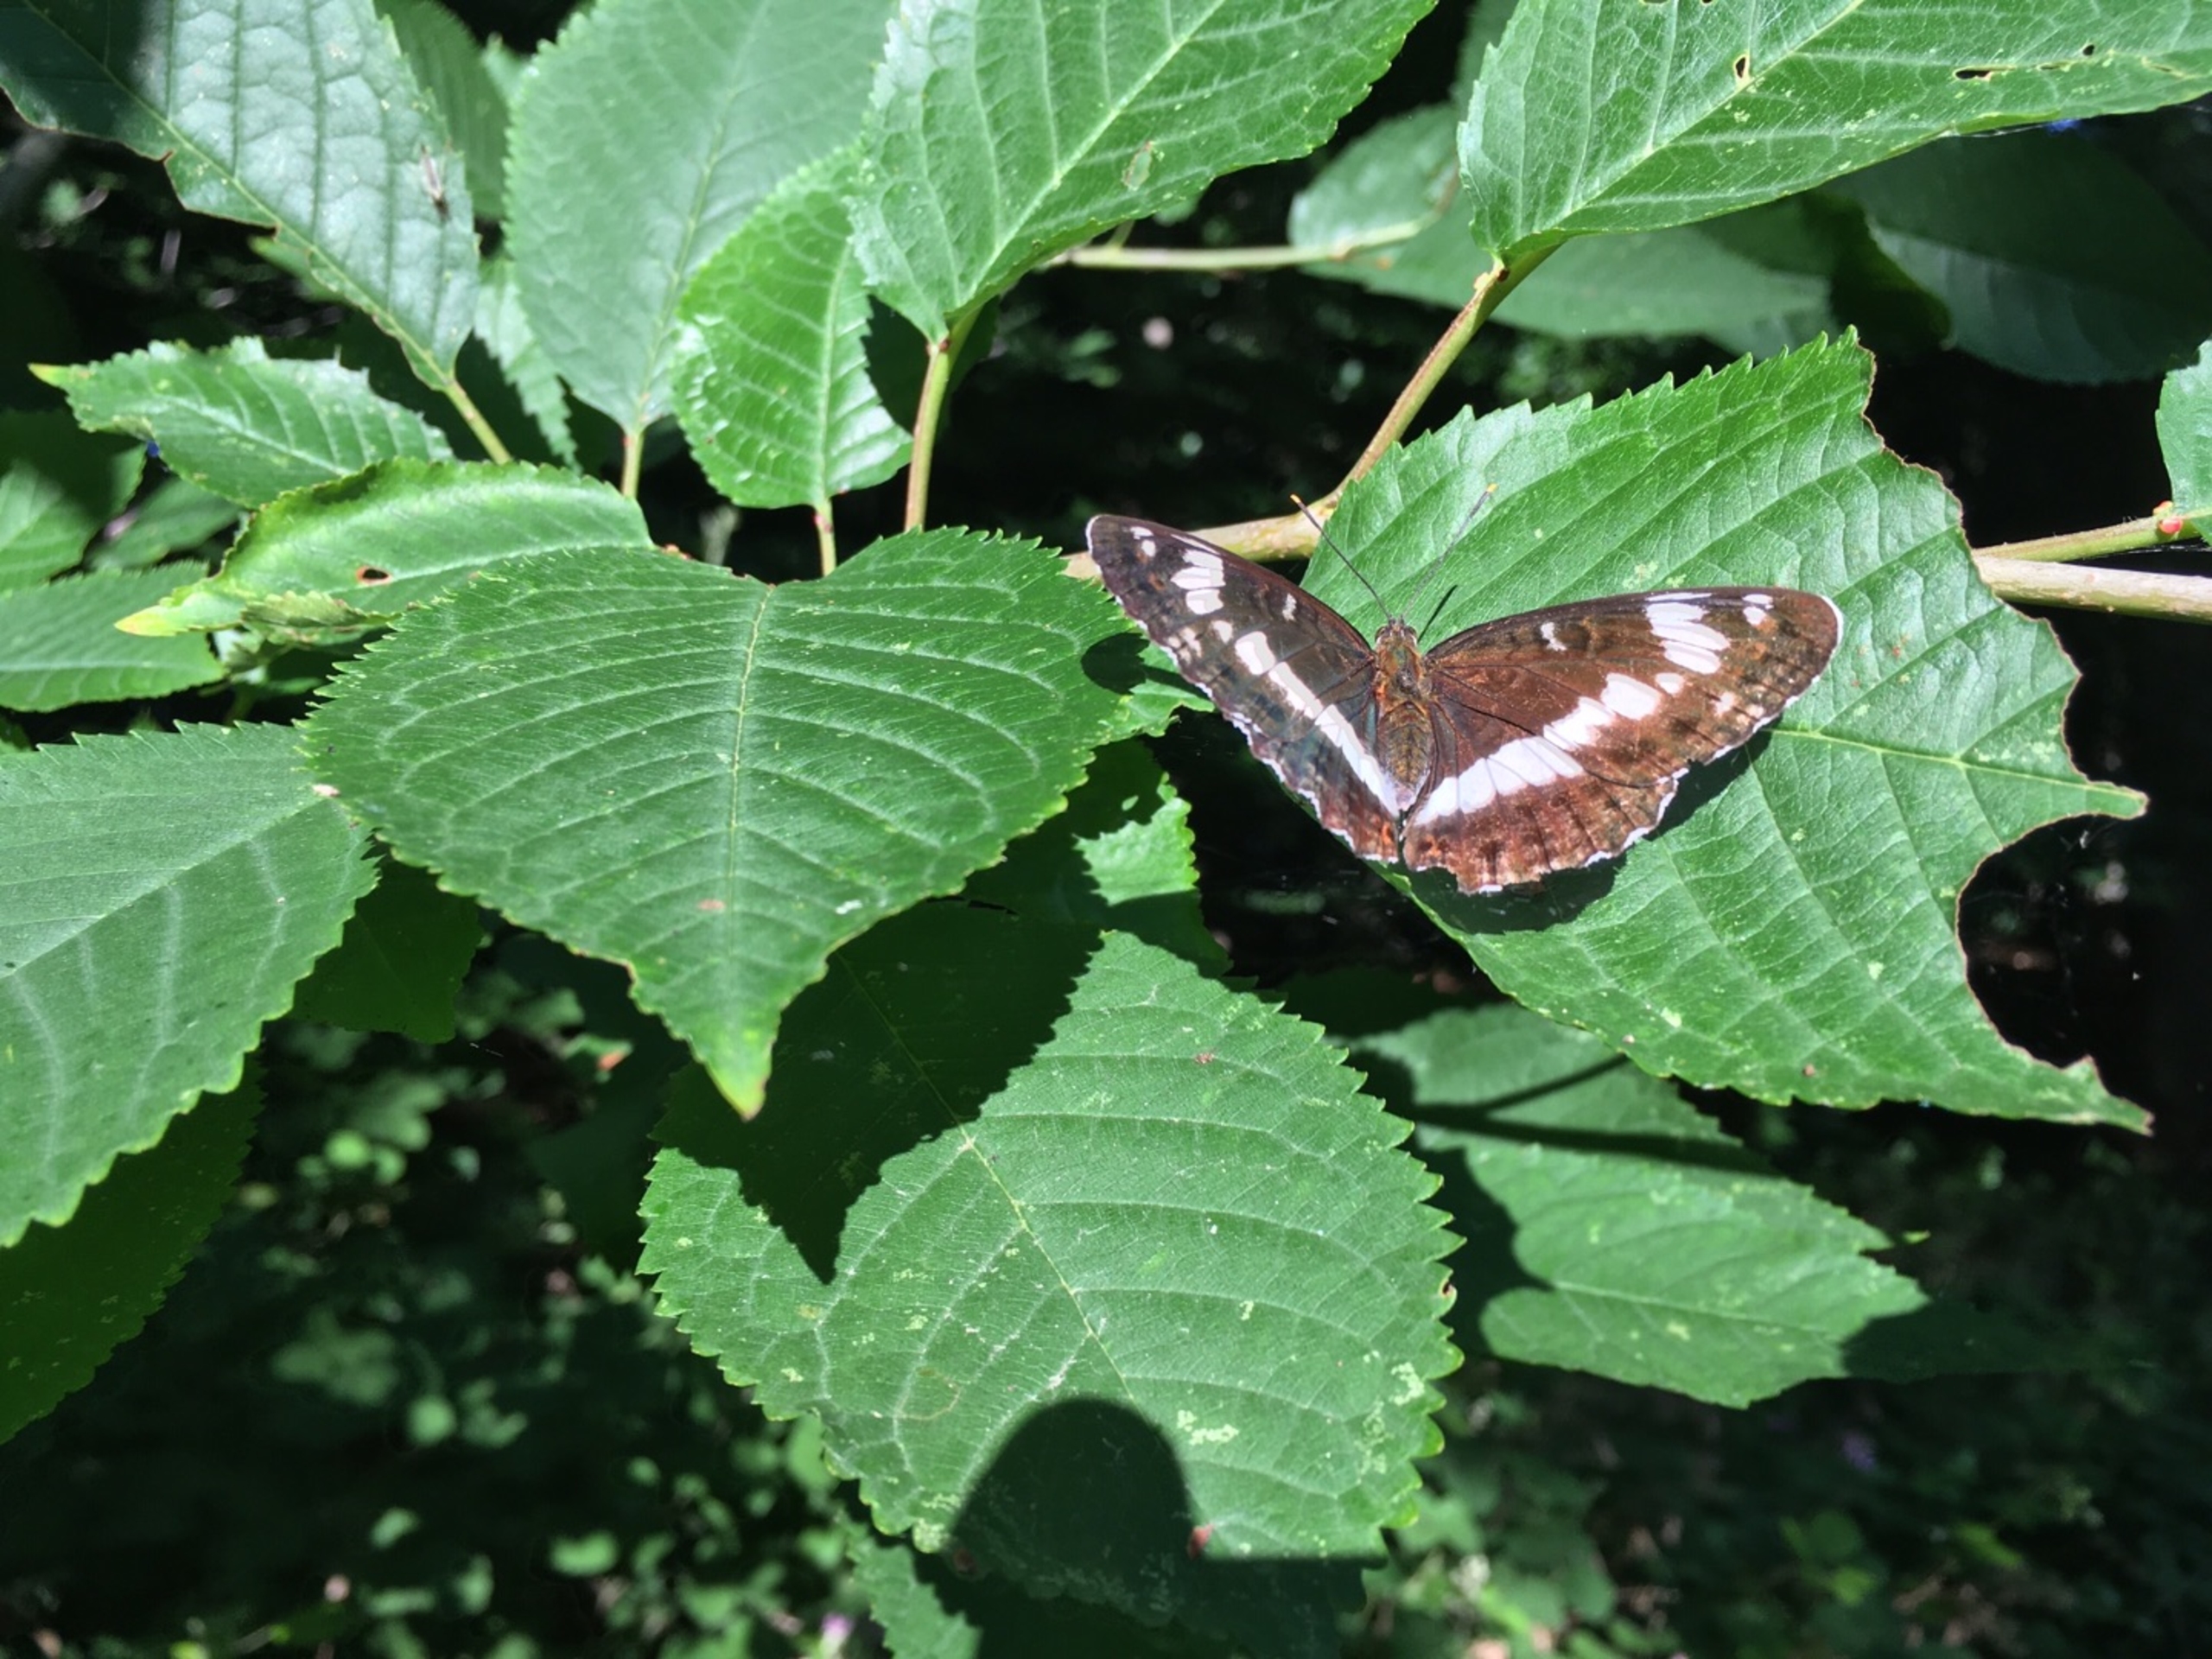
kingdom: Animalia
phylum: Arthropoda
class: Insecta
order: Lepidoptera
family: Nymphalidae
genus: Ladoga
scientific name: Ladoga camilla
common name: Hvid admiral
